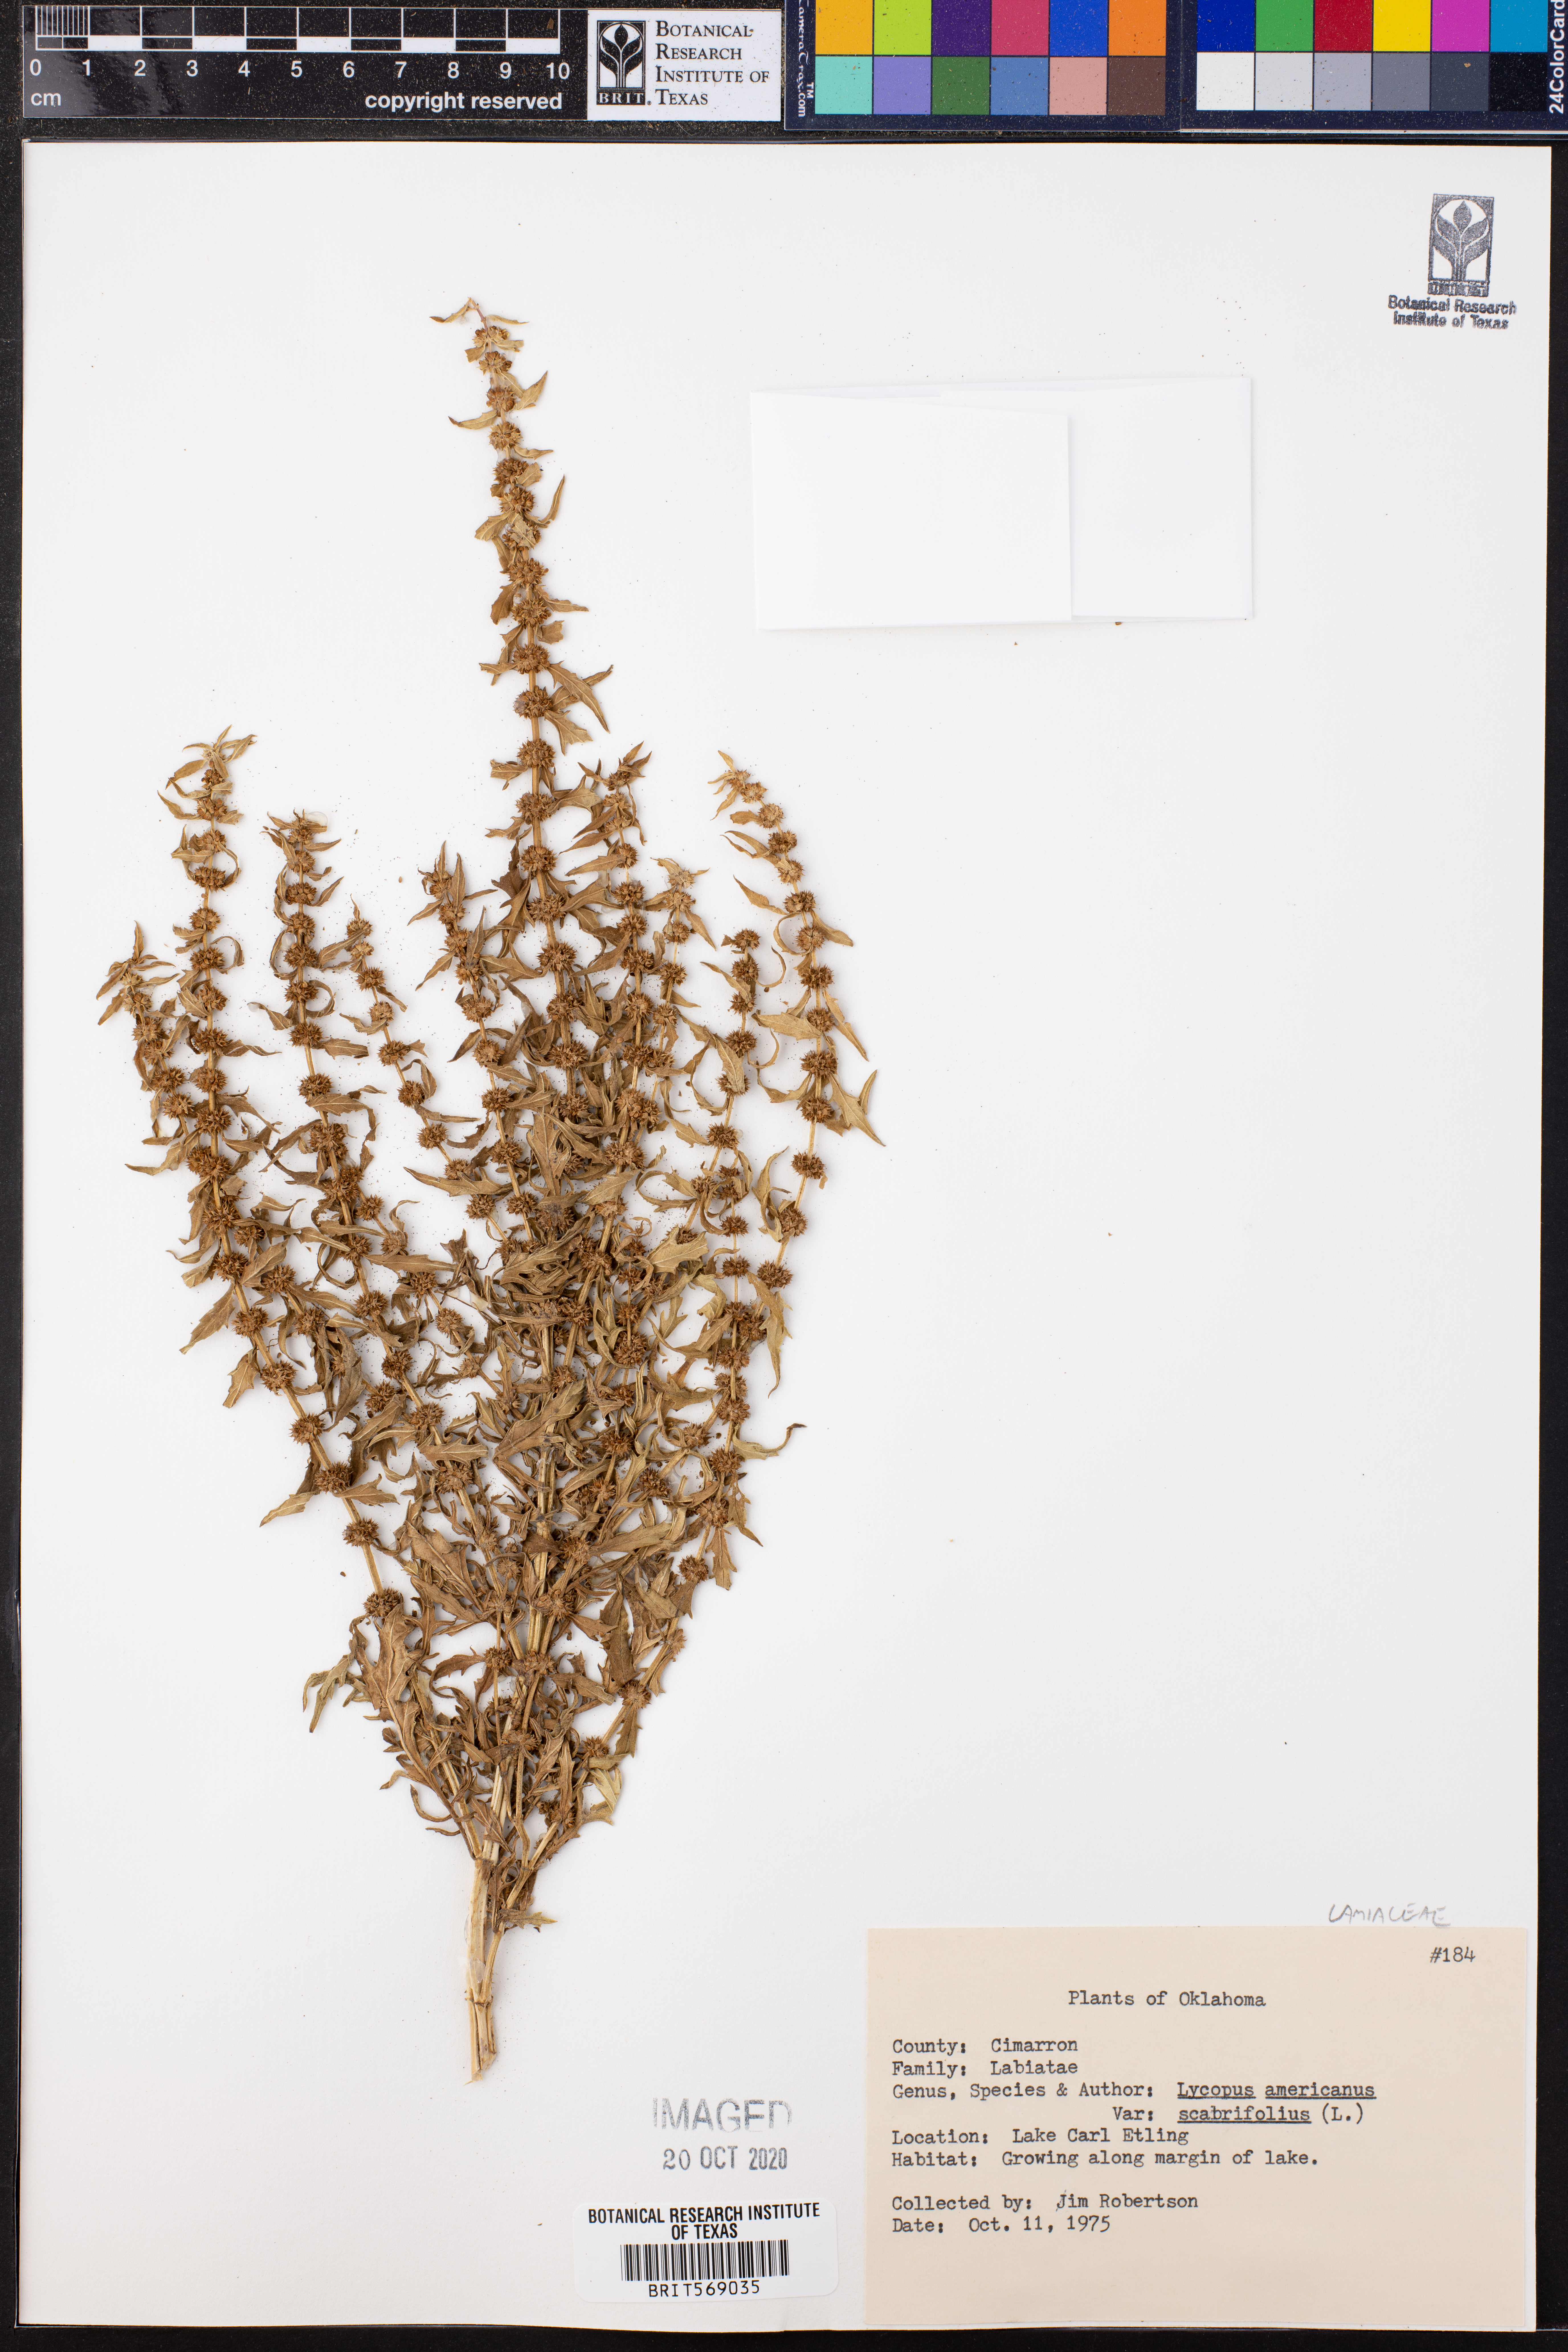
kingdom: Plantae
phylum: Tracheophyta
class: Magnoliopsida
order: Lamiales
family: Lamiaceae
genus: Lycopus
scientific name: Lycopus americanus
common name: American bugleweed
